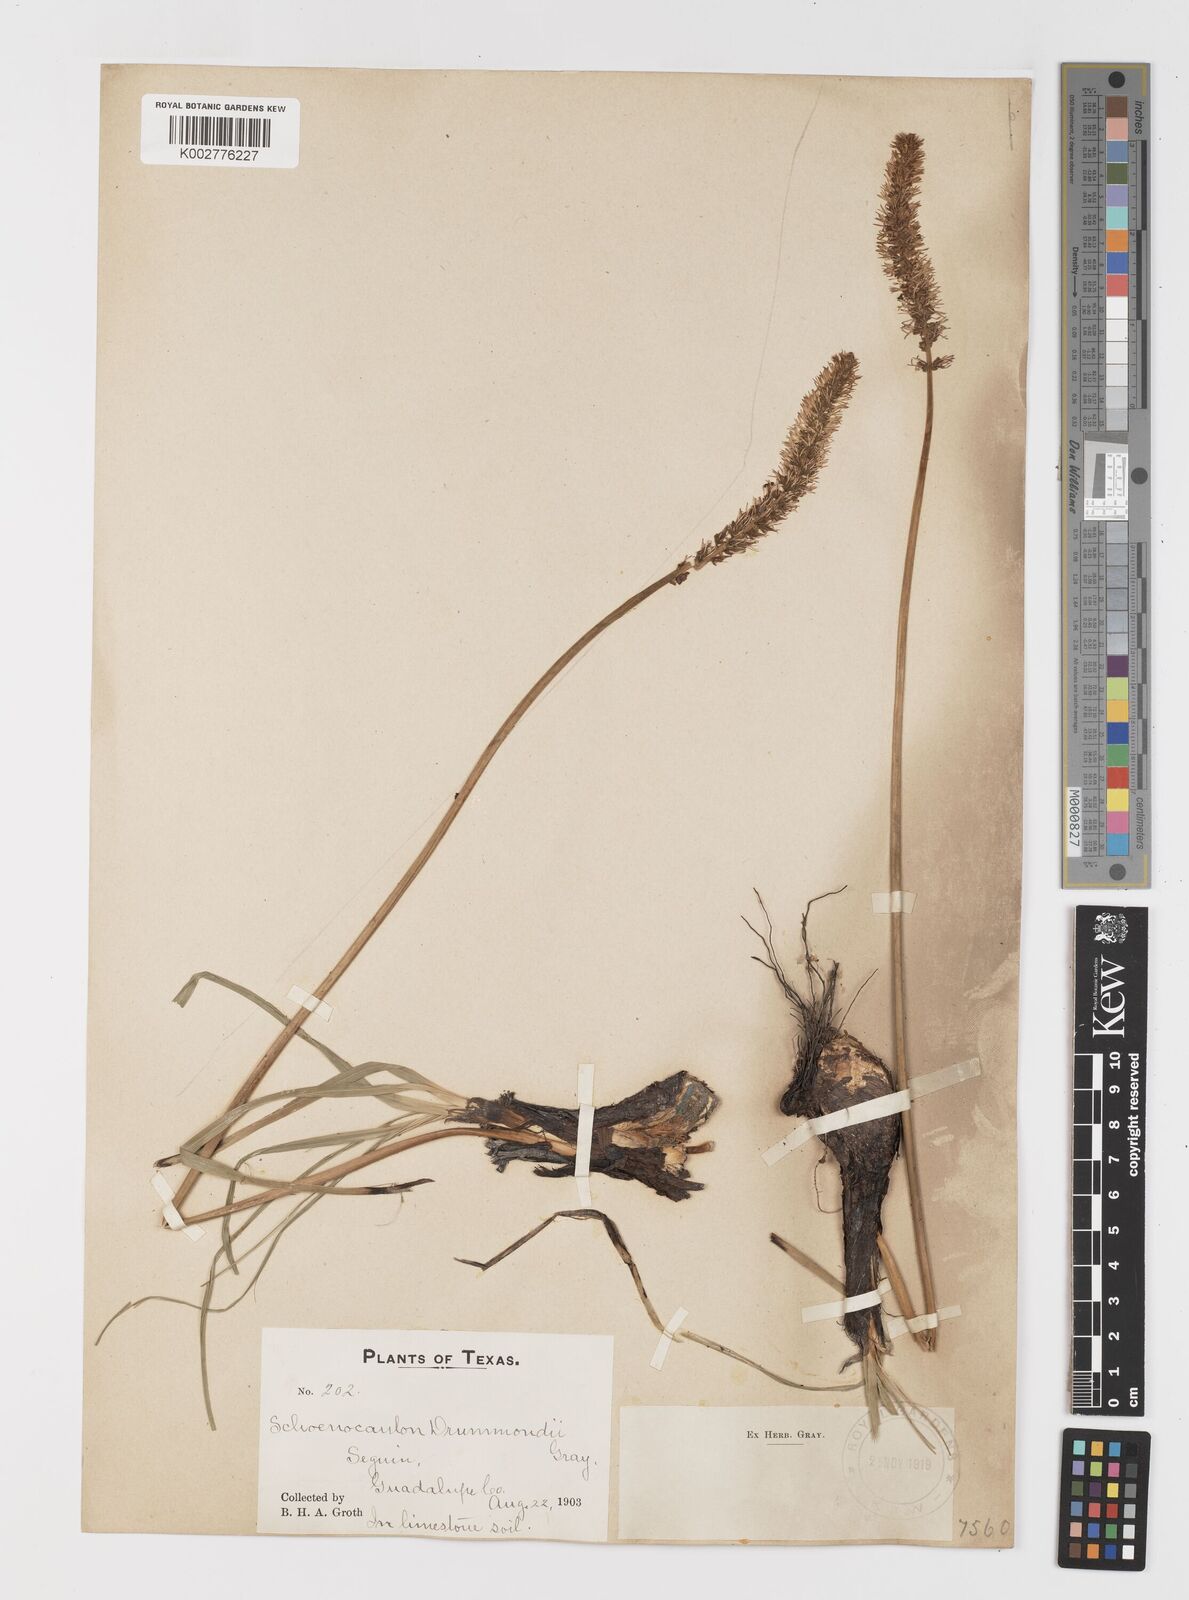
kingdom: Plantae
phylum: Tracheophyta
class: Liliopsida
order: Liliales
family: Melanthiaceae
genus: Schoenocaulon
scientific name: Schoenocaulon texanum
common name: Texas feather-shank
